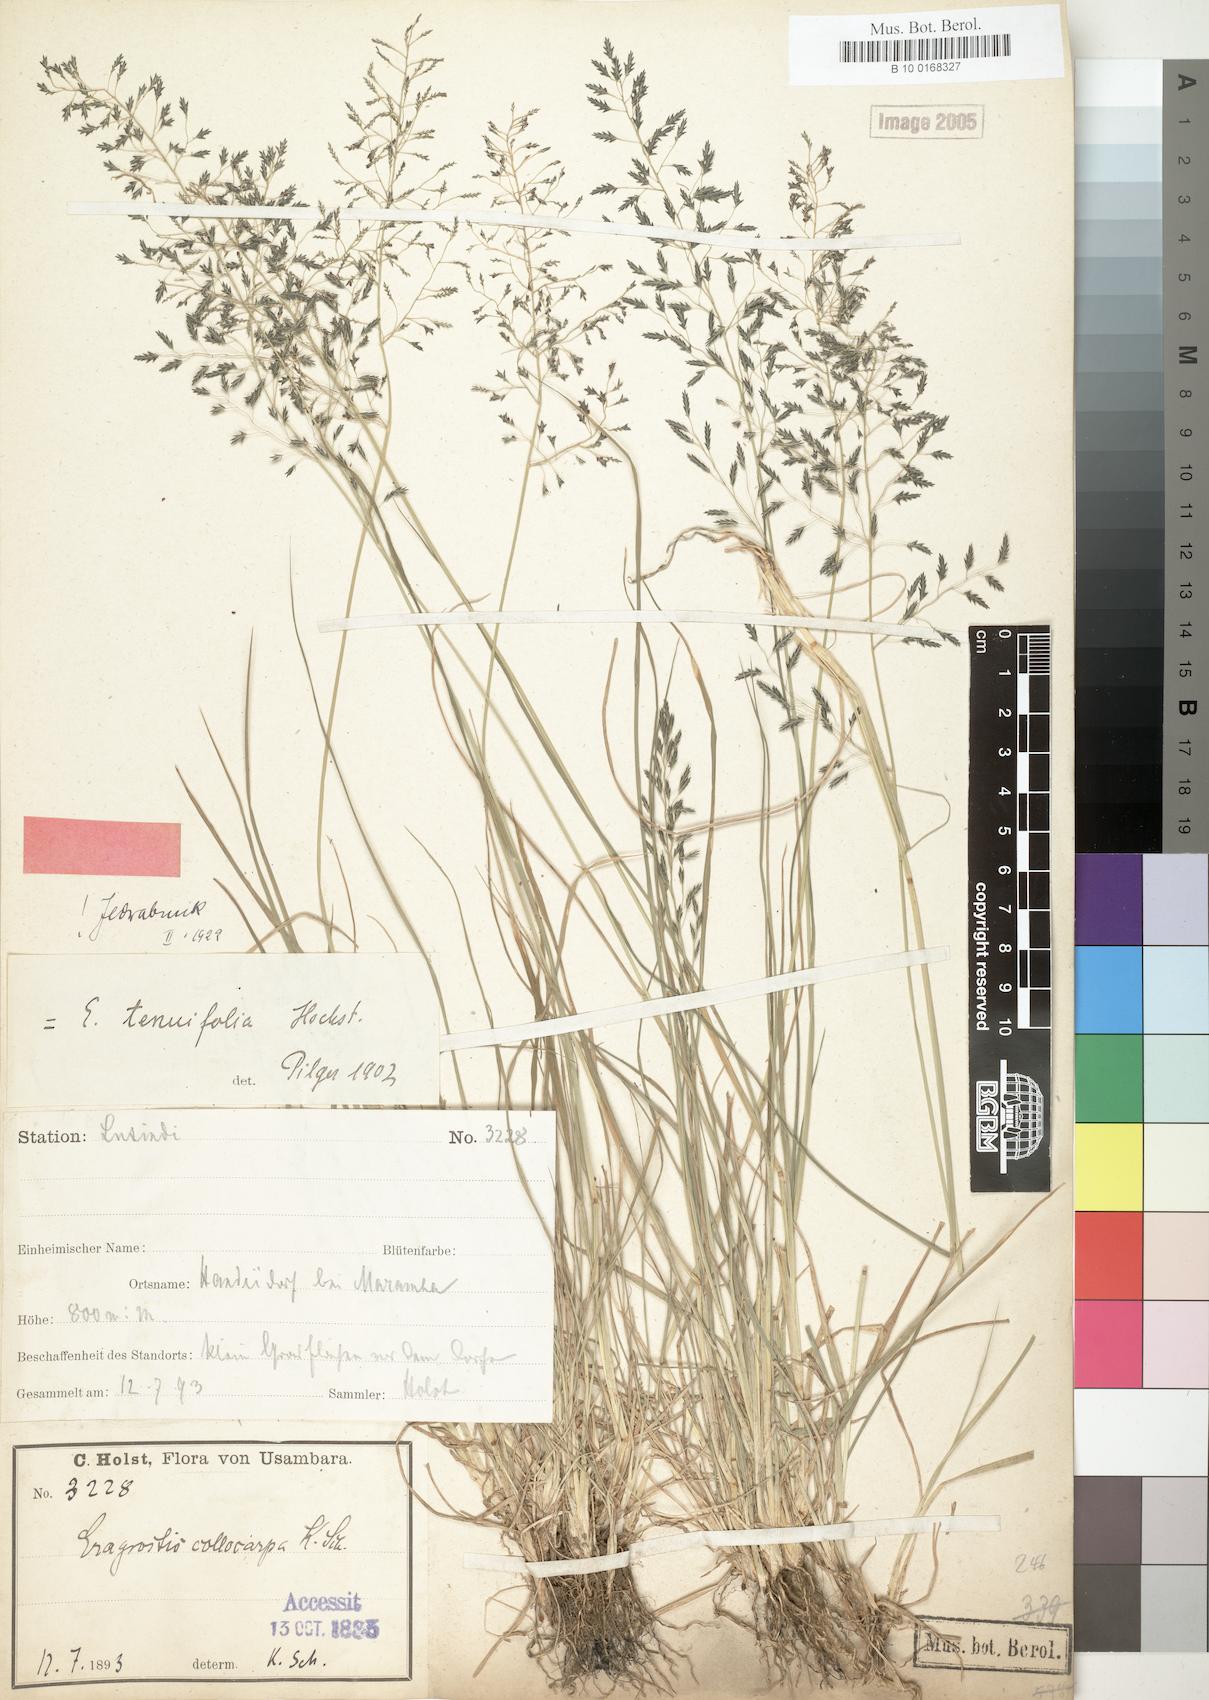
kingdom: Plantae
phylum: Tracheophyta
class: Liliopsida
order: Poales
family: Poaceae
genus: Eragrostis
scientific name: Eragrostis pilosa
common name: Indian lovegrass
